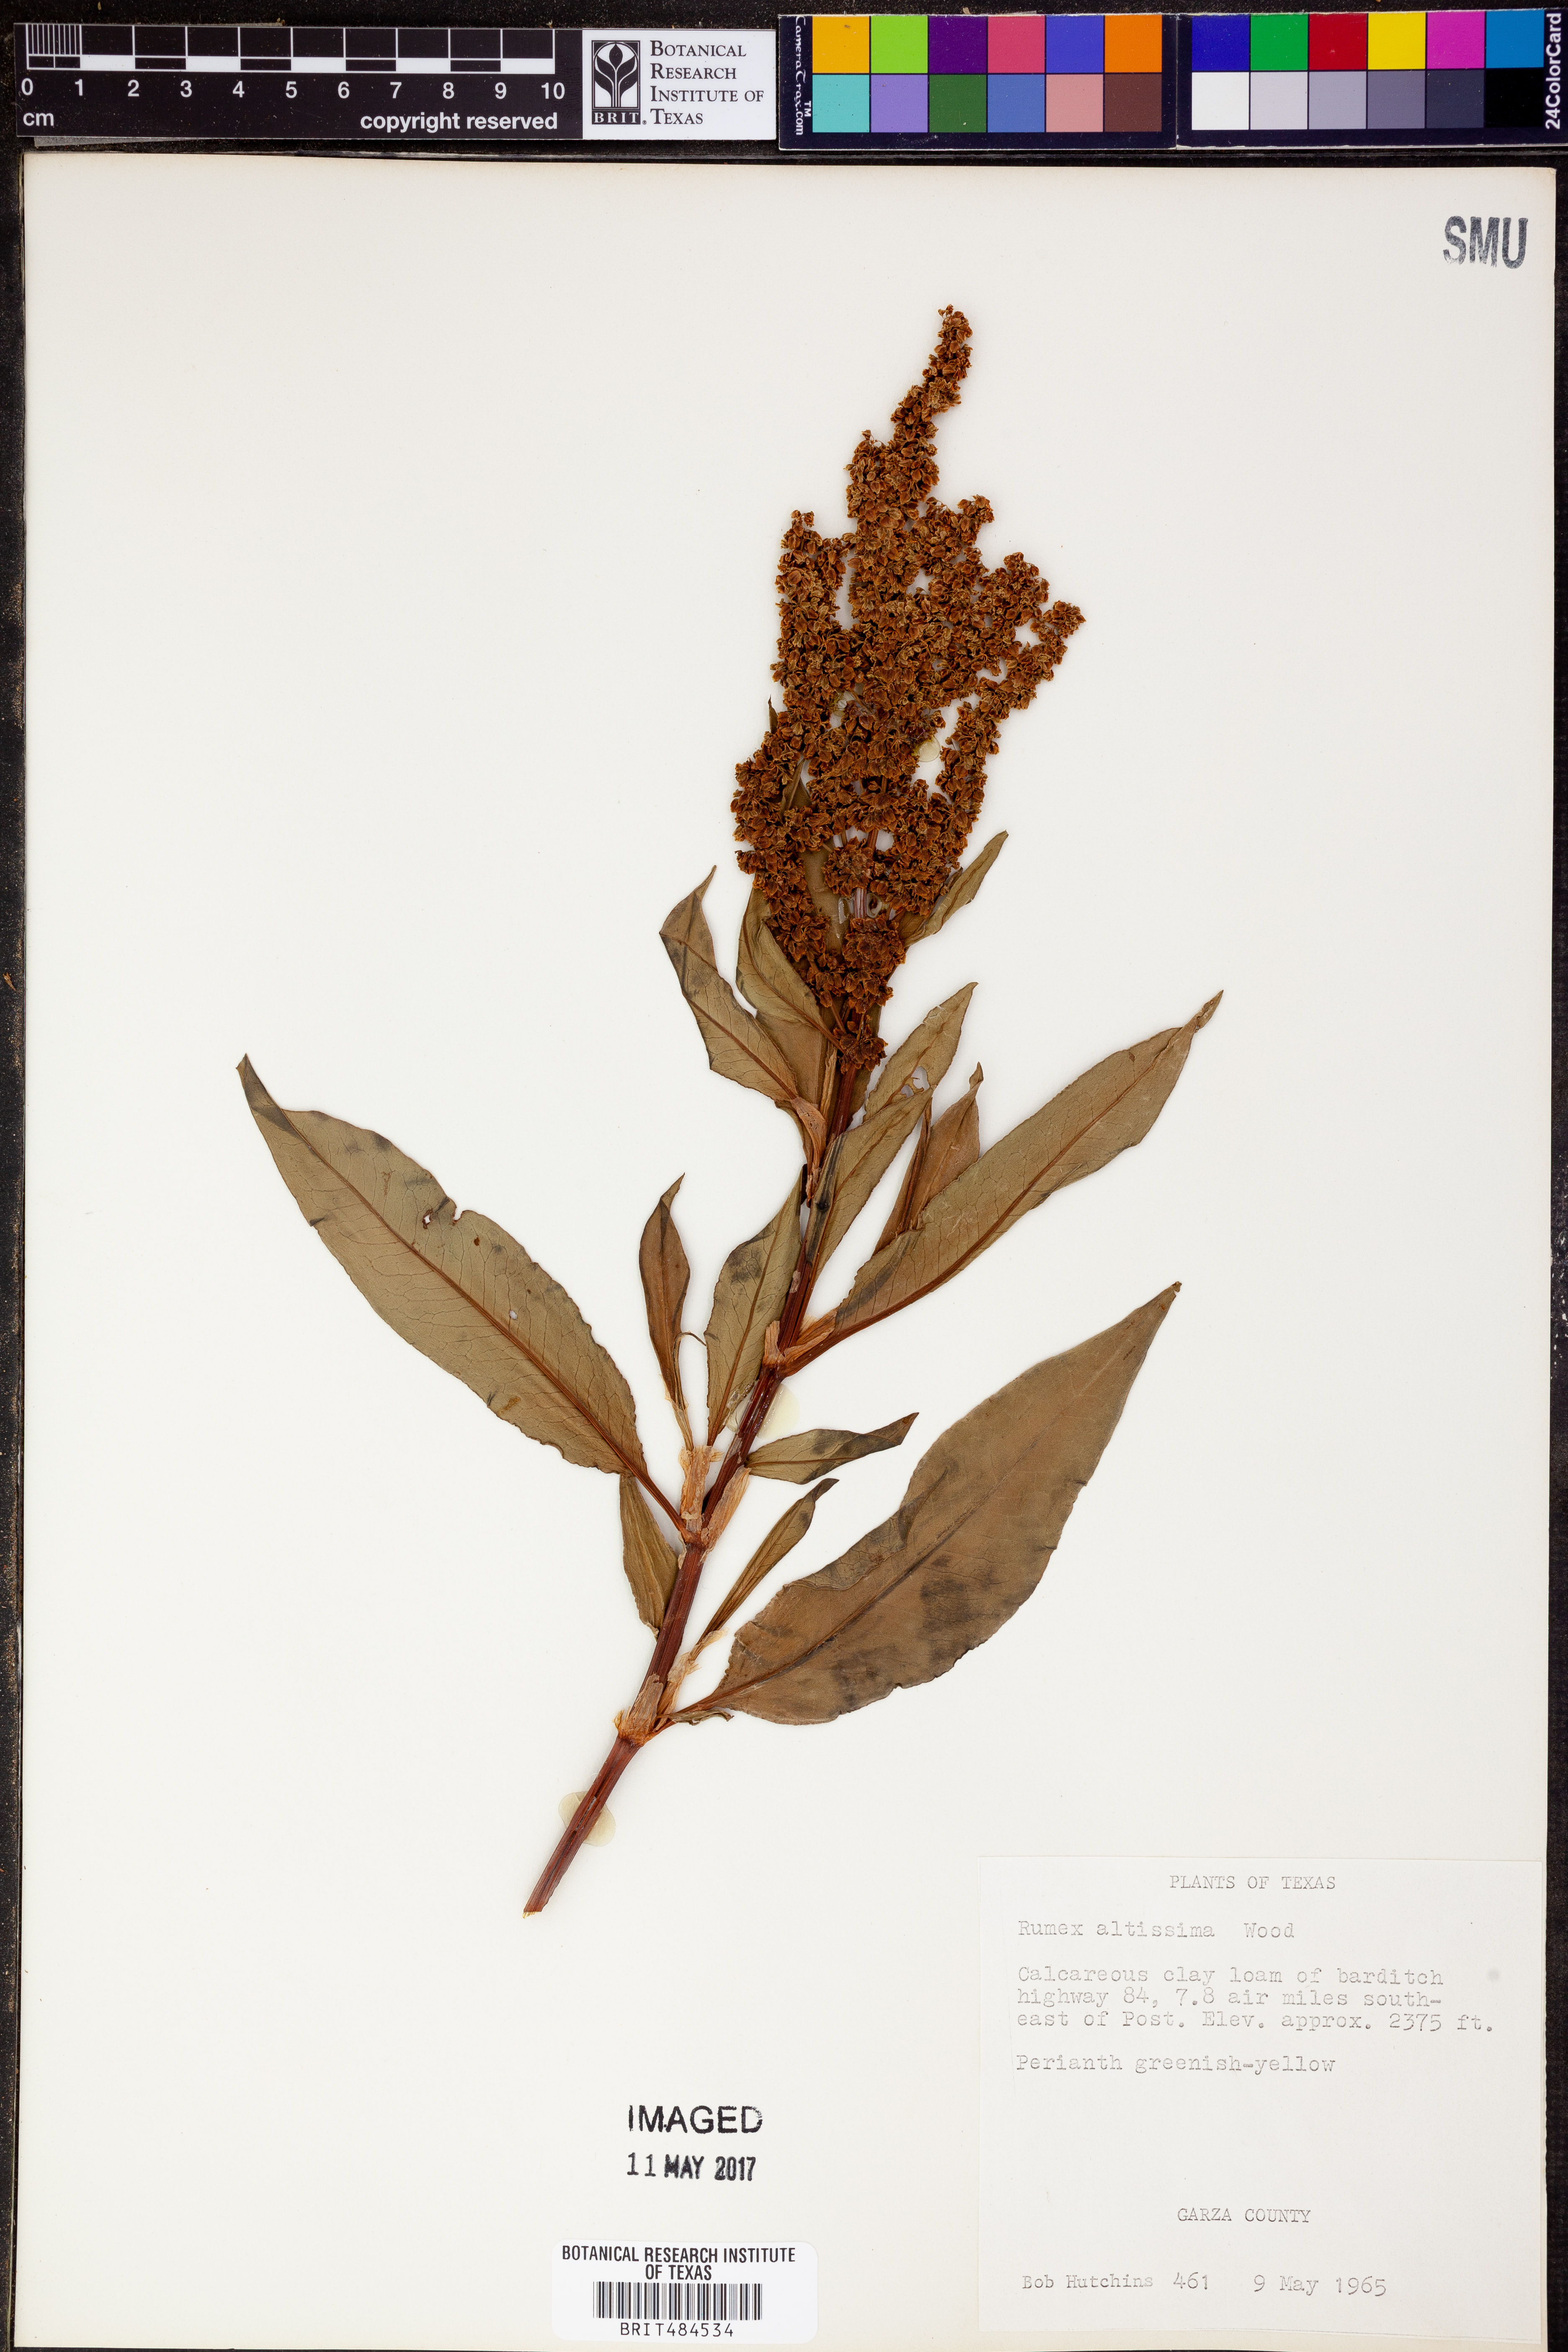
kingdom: Plantae
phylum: Tracheophyta
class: Magnoliopsida
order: Caryophyllales
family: Polygonaceae
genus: Rumex
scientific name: Rumex altissimus
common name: Smooth dock
